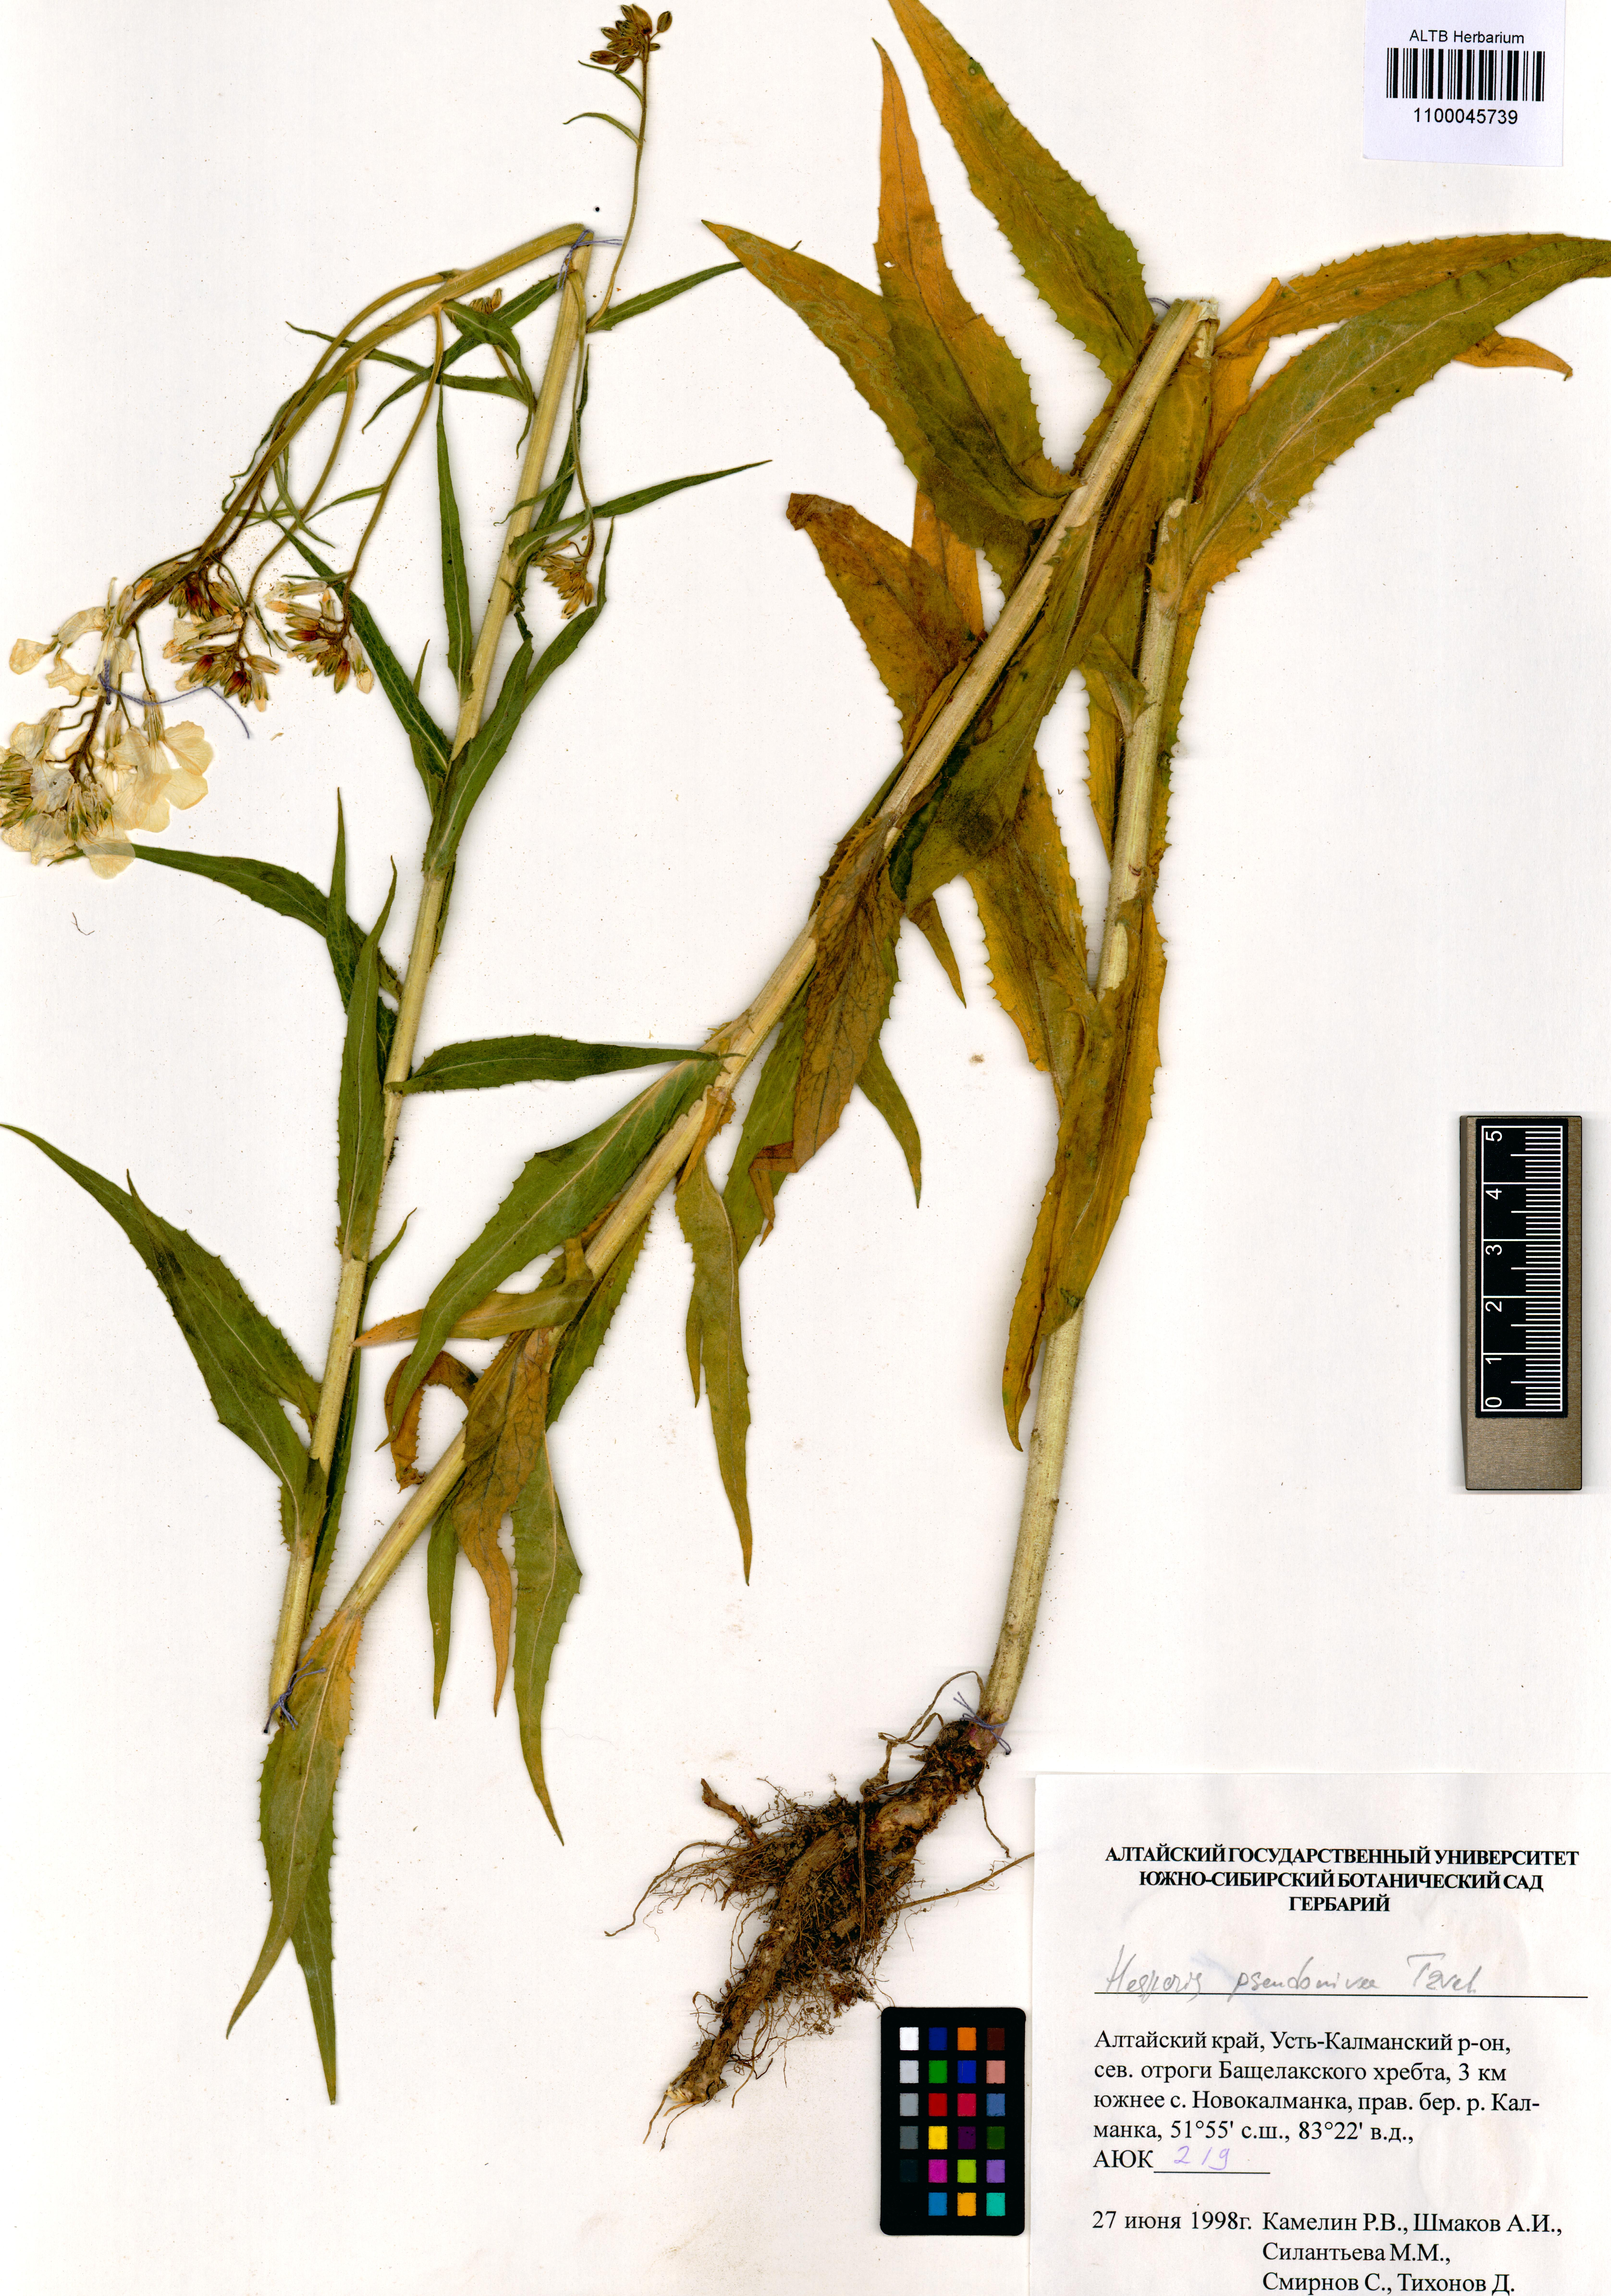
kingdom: Plantae
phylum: Tracheophyta
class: Magnoliopsida
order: Brassicales
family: Brassicaceae
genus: Hesperis
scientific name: Hesperis sibirica
